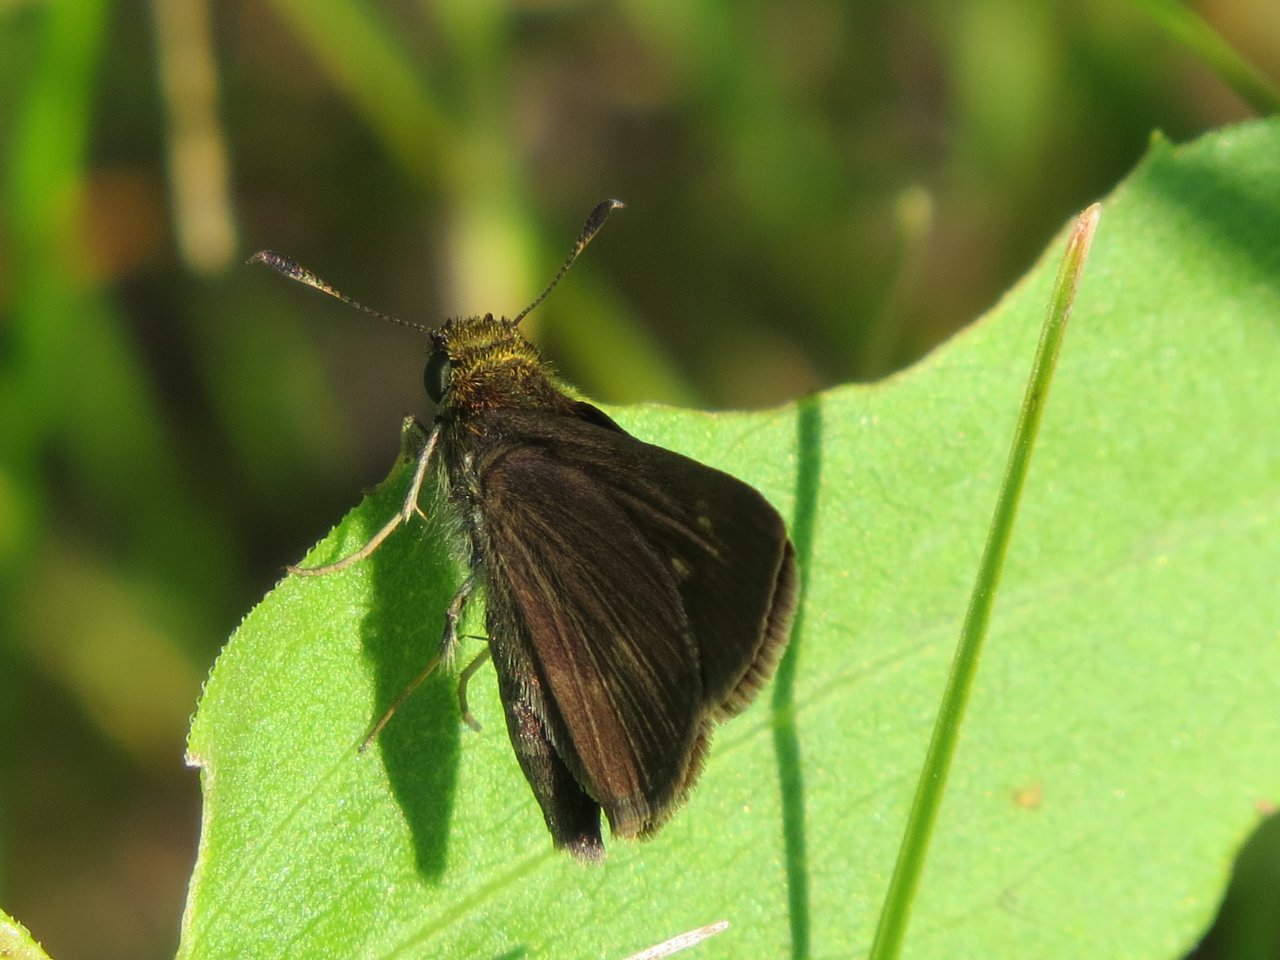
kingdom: Animalia
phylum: Arthropoda
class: Insecta
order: Lepidoptera
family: Hesperiidae
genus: Euphyes
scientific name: Euphyes vestris
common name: Dun Skipper
